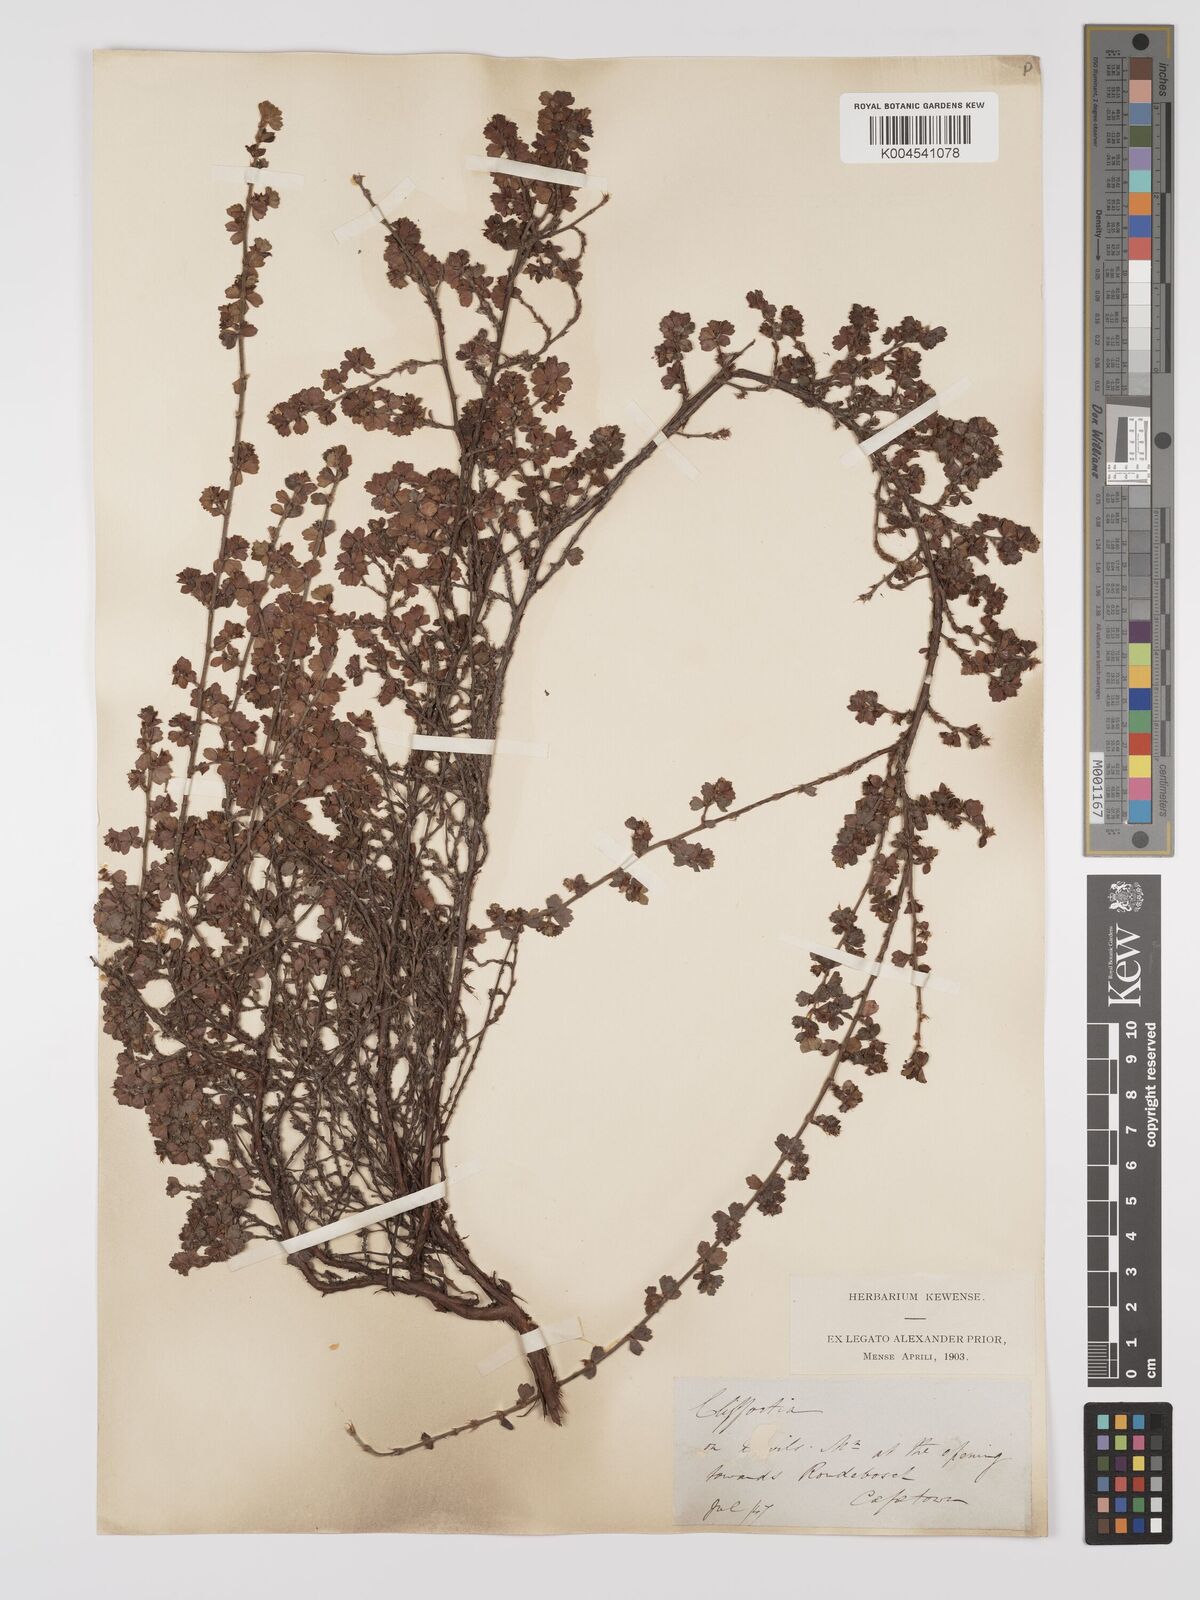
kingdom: Plantae
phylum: Tracheophyta
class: Magnoliopsida
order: Rosales
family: Rosaceae
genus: Cliffortia
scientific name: Cliffortia
